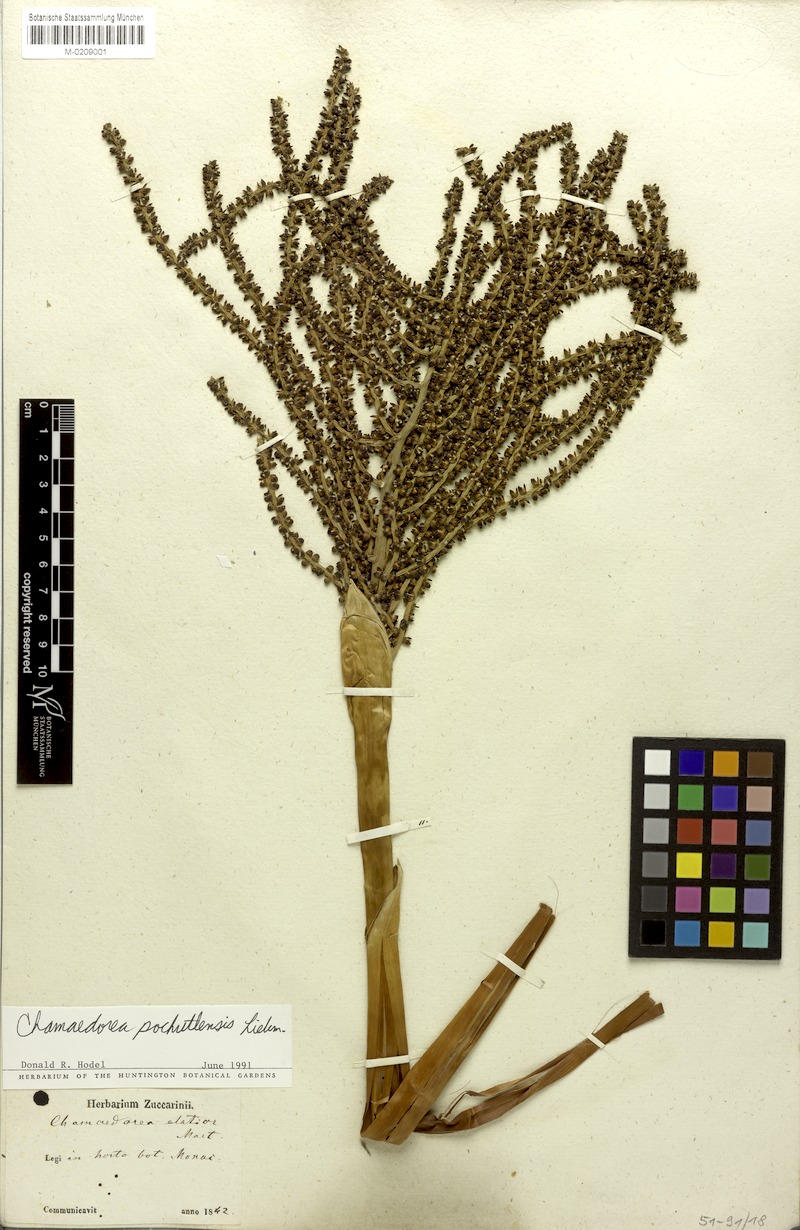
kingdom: Plantae
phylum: Tracheophyta
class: Liliopsida
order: Arecales
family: Arecaceae
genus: Chamaedorea
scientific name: Chamaedorea pochutlensis
